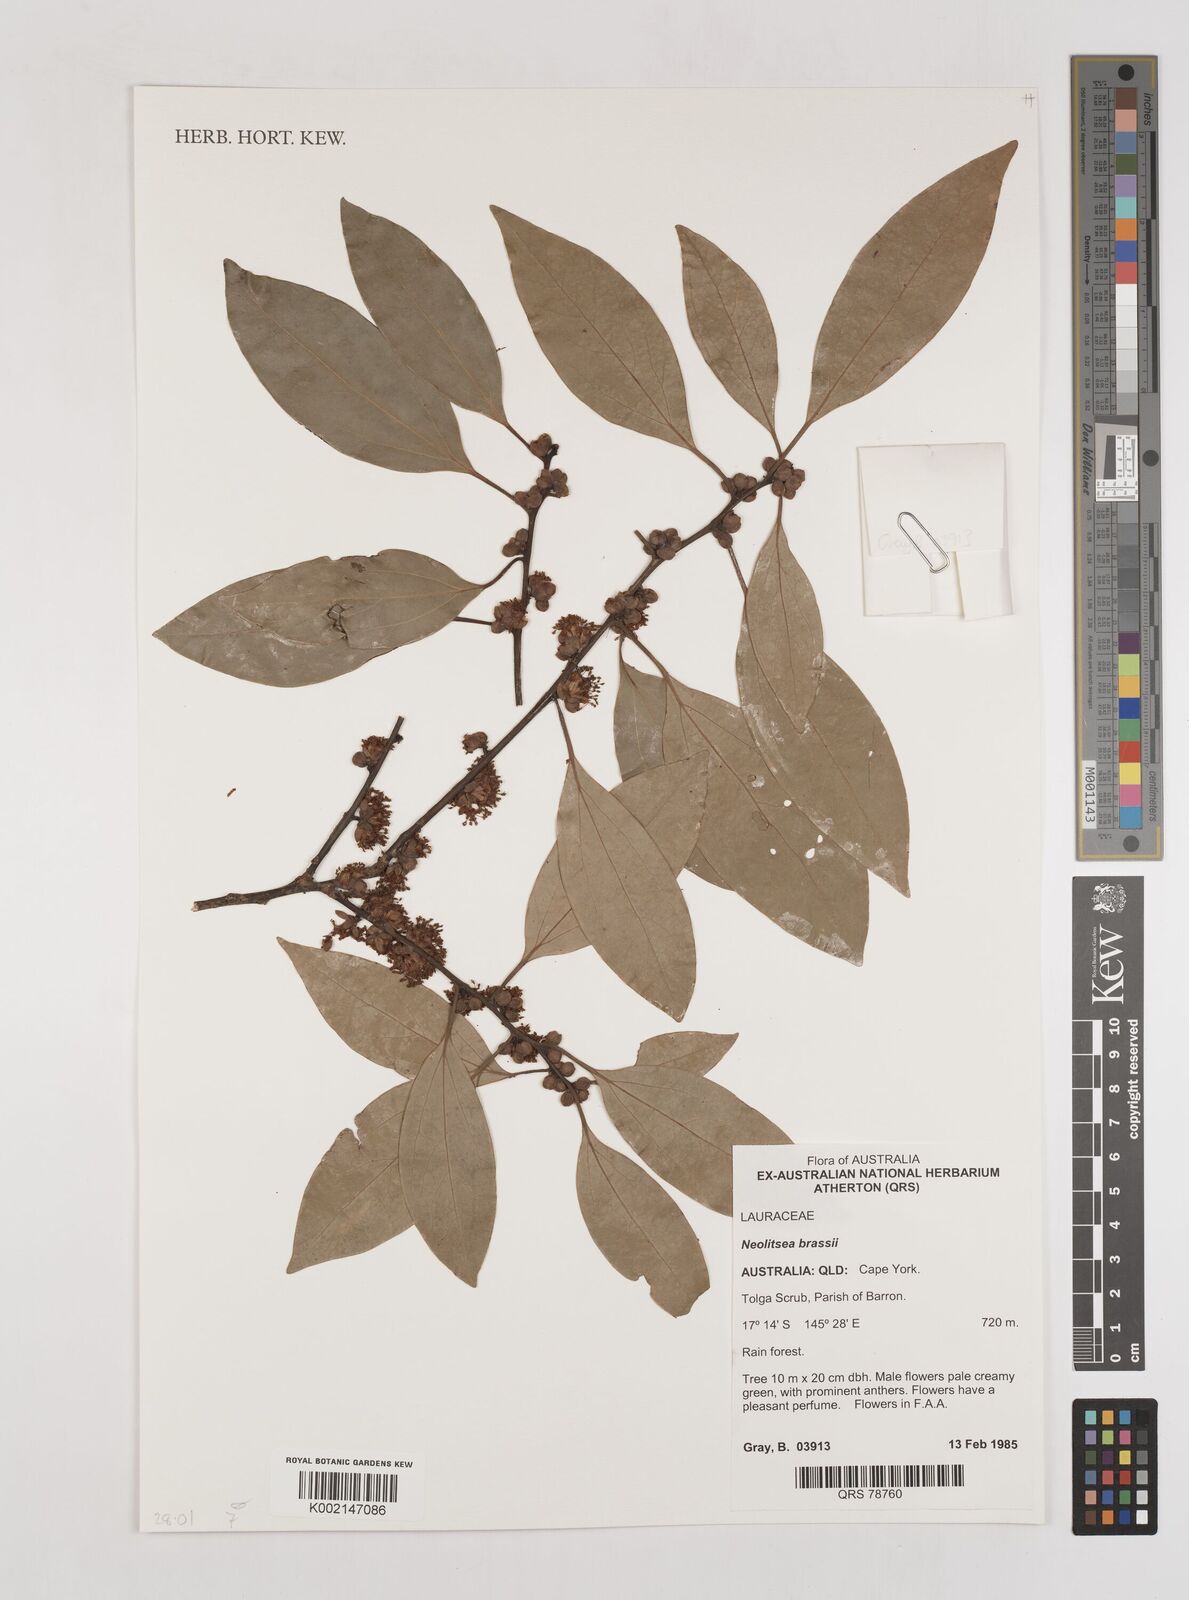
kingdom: Plantae
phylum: Tracheophyta
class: Magnoliopsida
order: Laurales
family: Lauraceae
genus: Litsea
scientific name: Litsea glutinosa
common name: Indian-laurel
